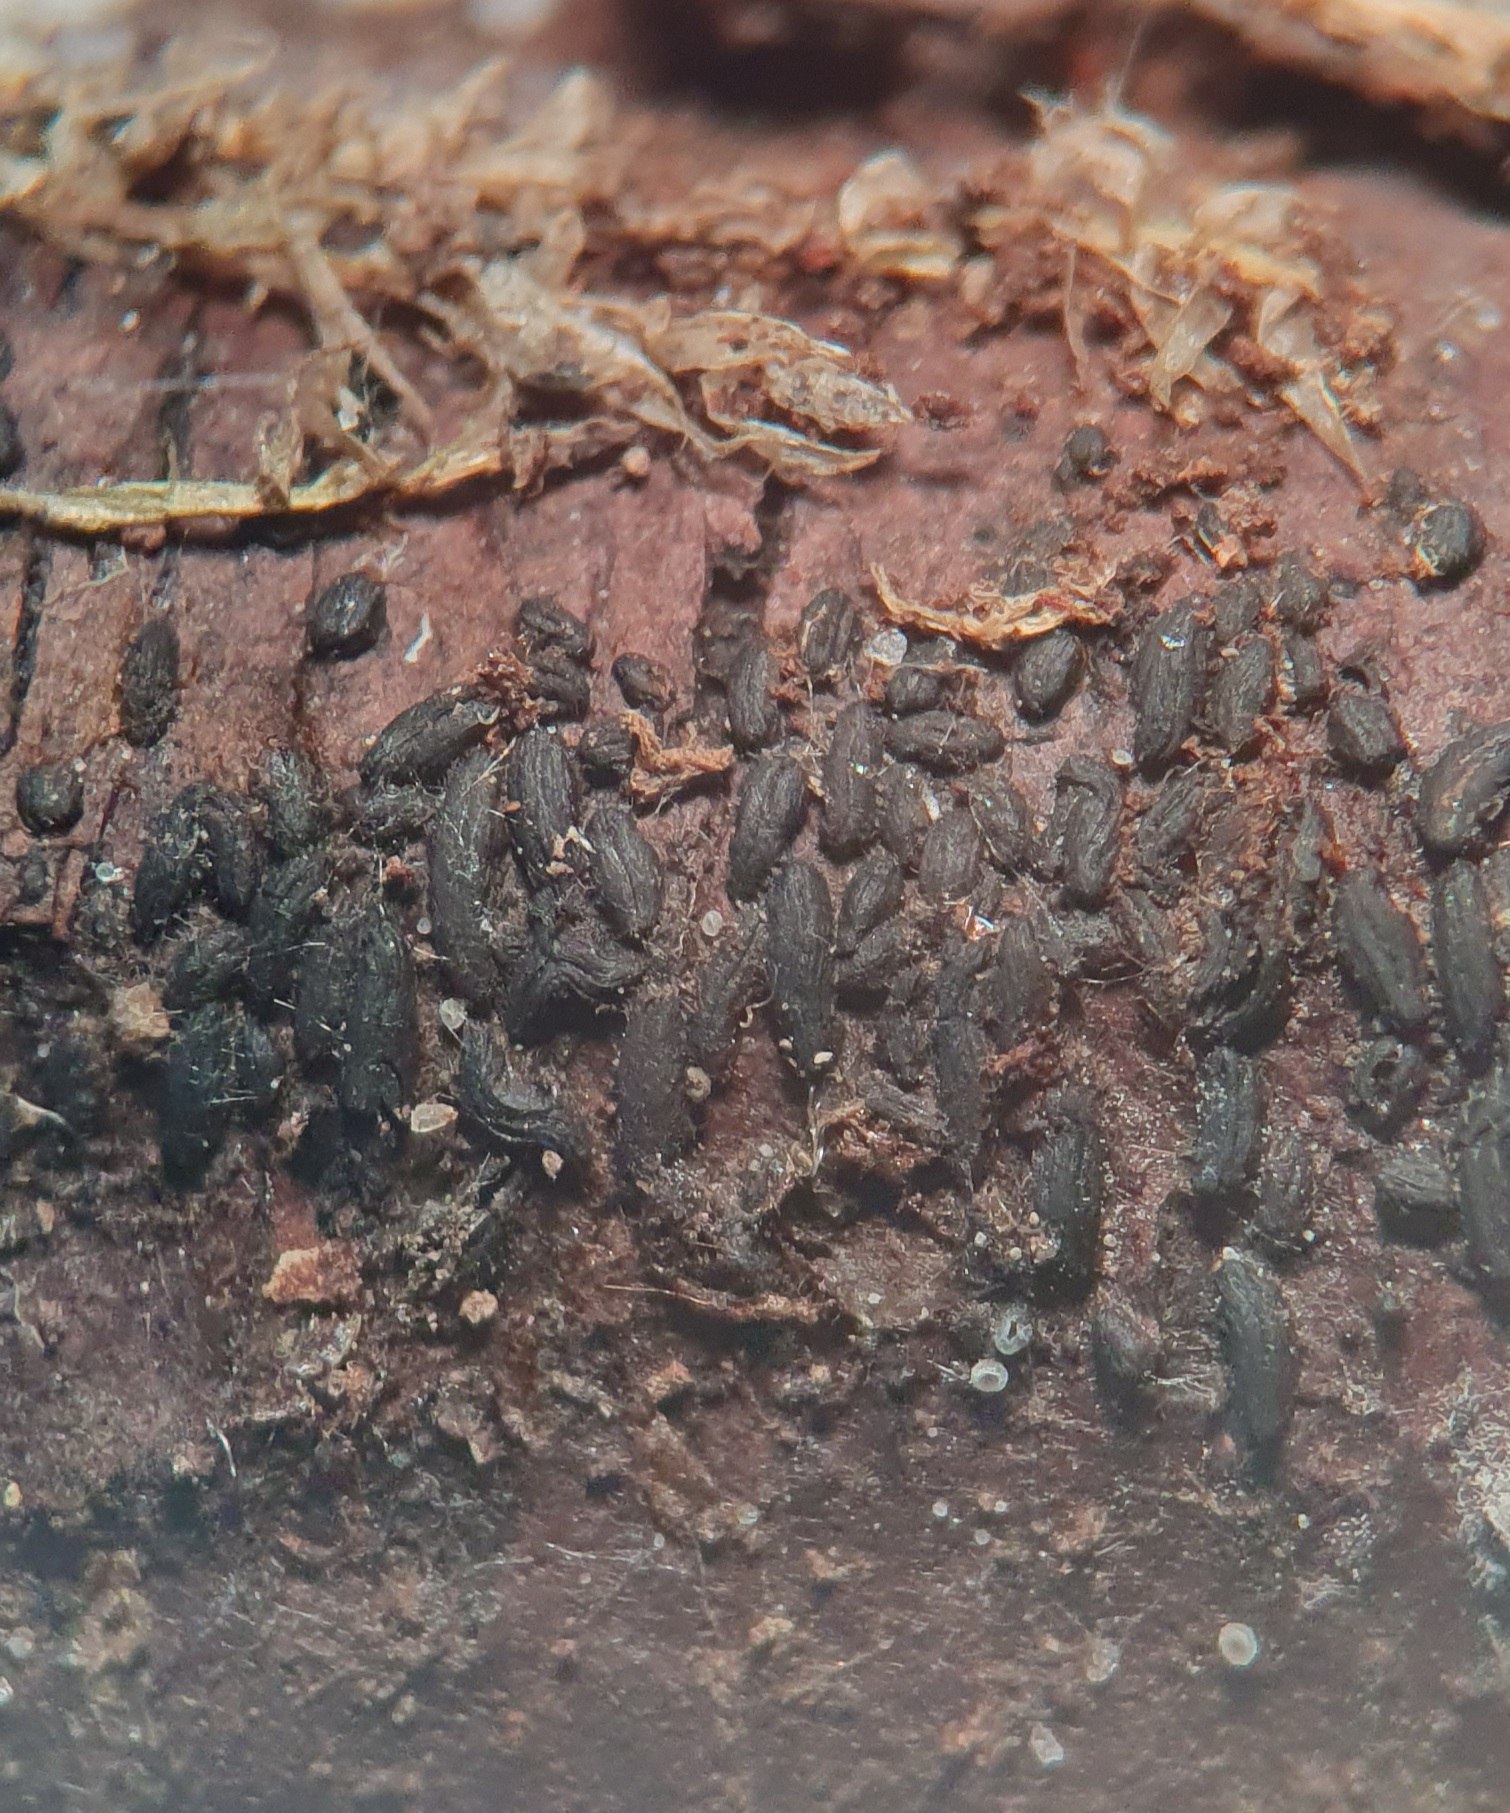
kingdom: Fungi
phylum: Ascomycota
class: Dothideomycetes
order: Hysteriales
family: Hysteriaceae
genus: Hysterium
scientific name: Hysterium pulicare
